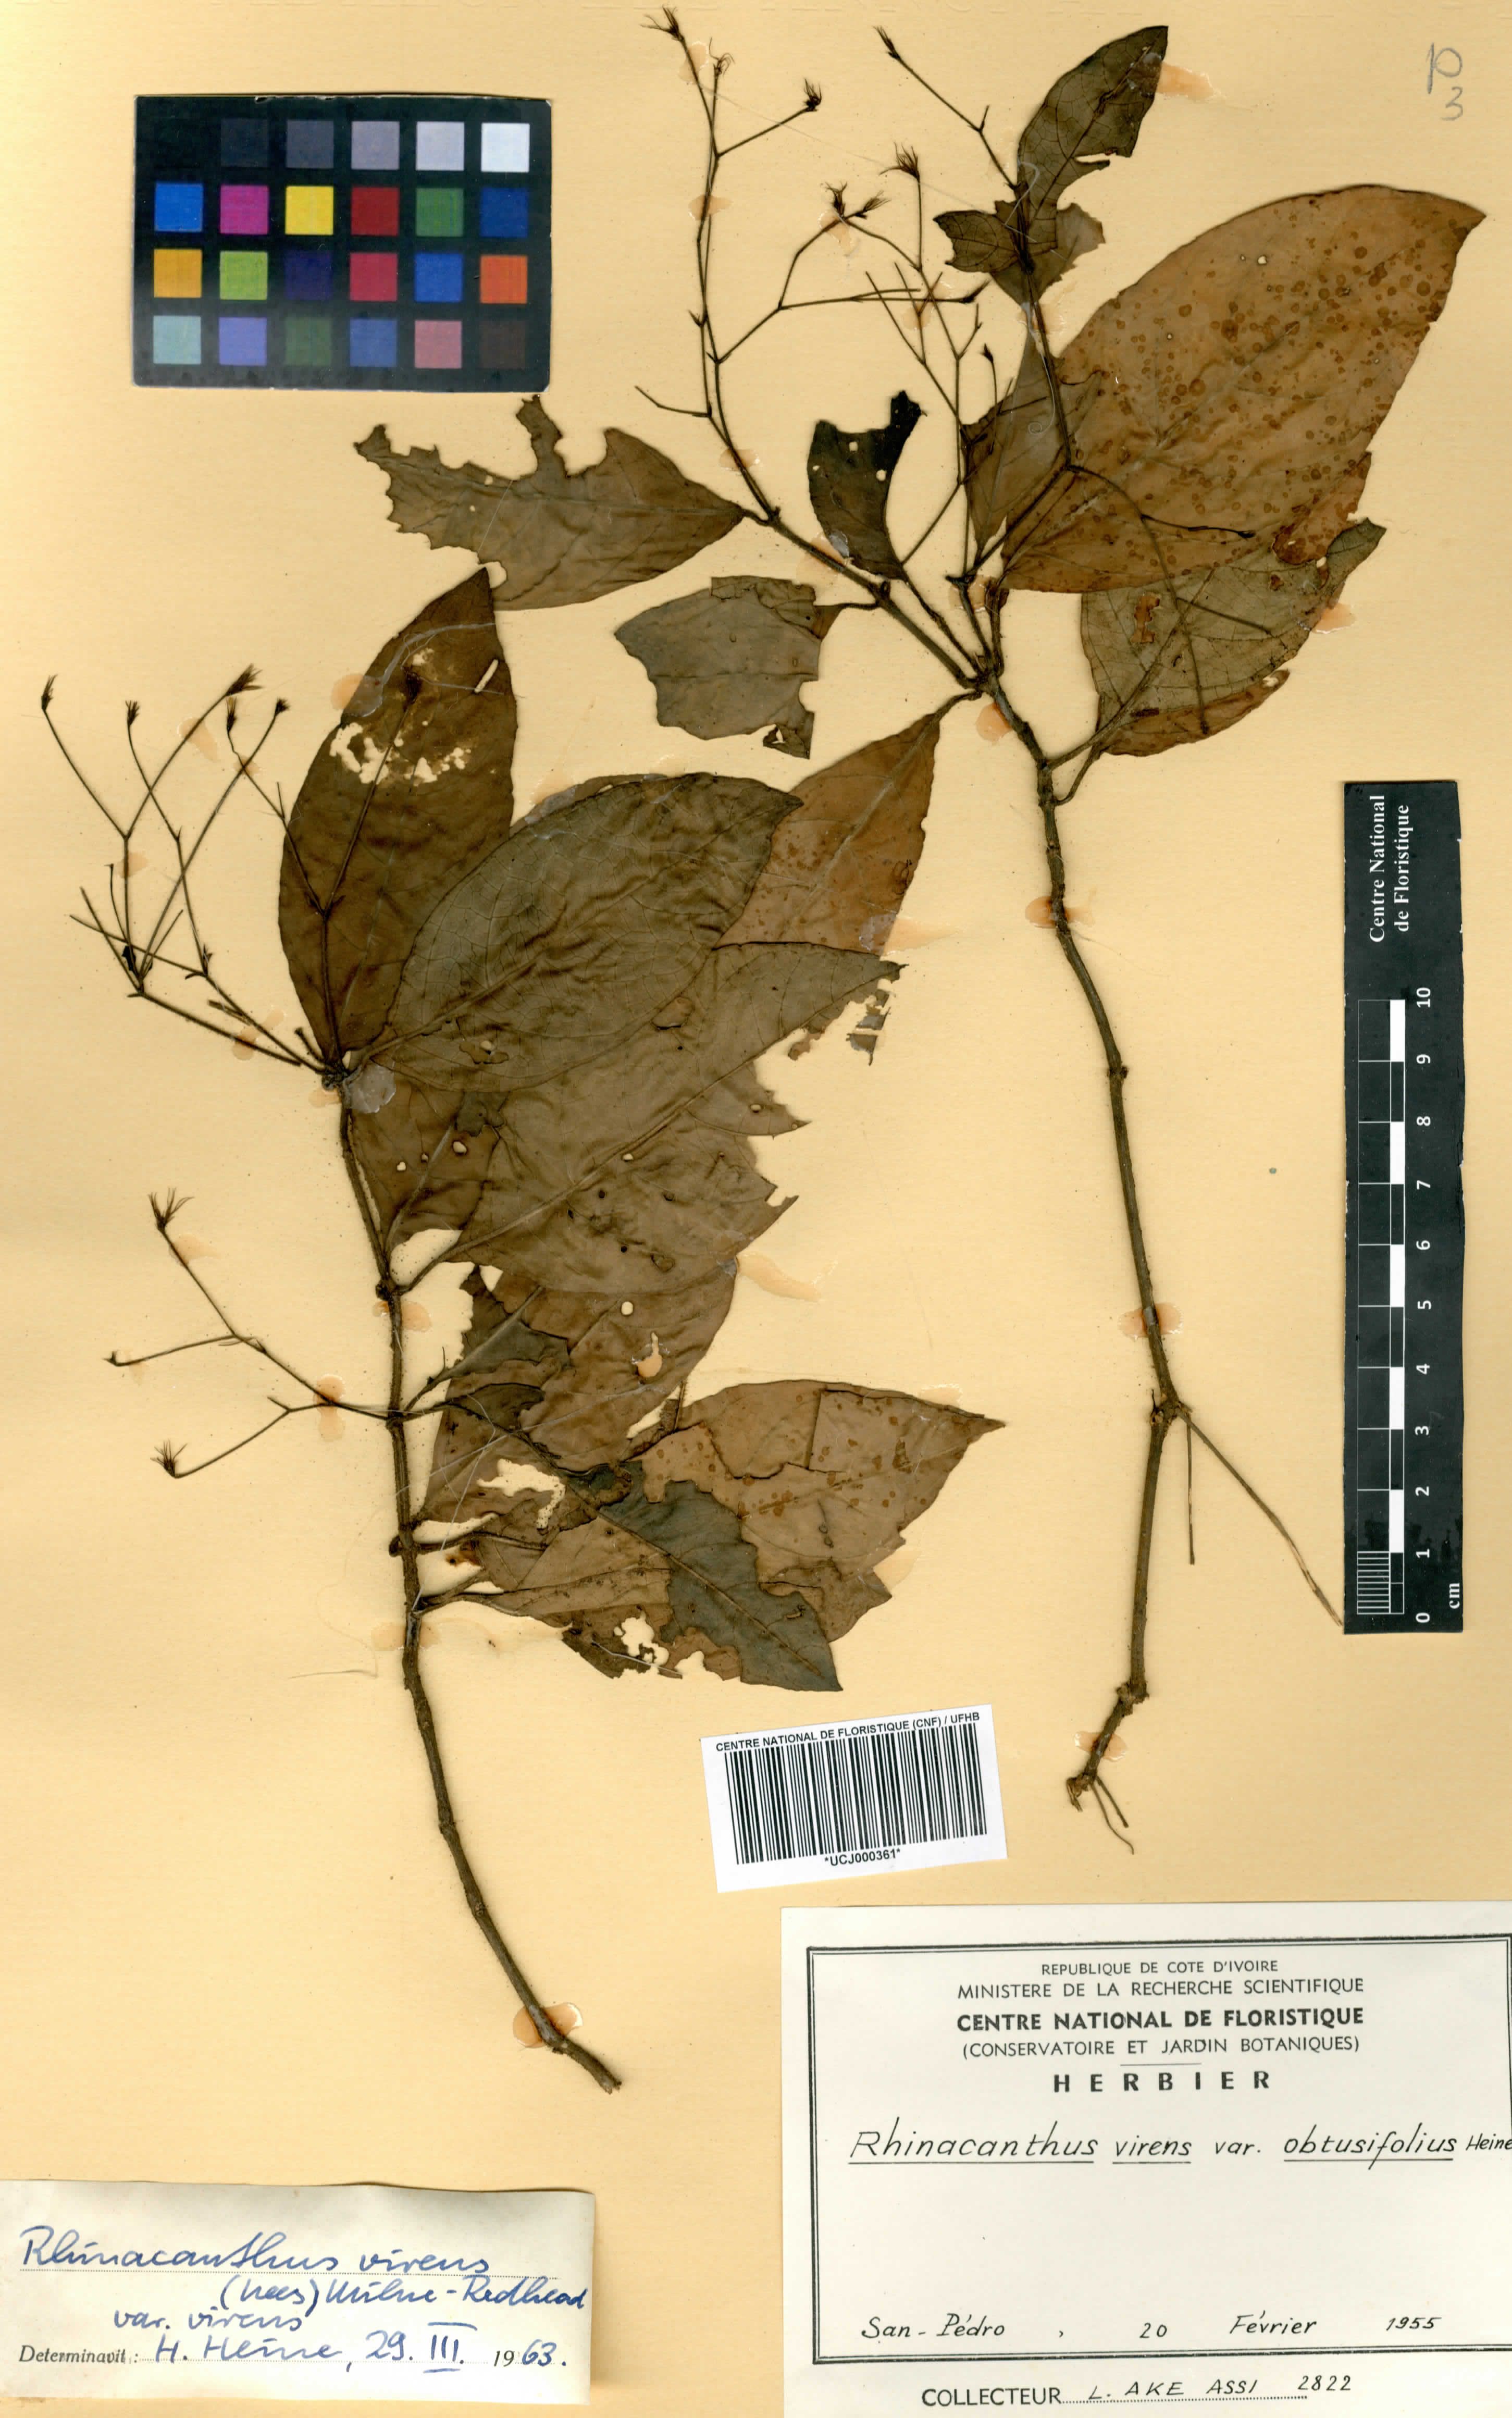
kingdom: Plantae
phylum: Tracheophyta
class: Magnoliopsida
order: Lamiales
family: Acanthaceae
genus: Rhinacanthus
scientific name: Rhinacanthus obtusifolius
